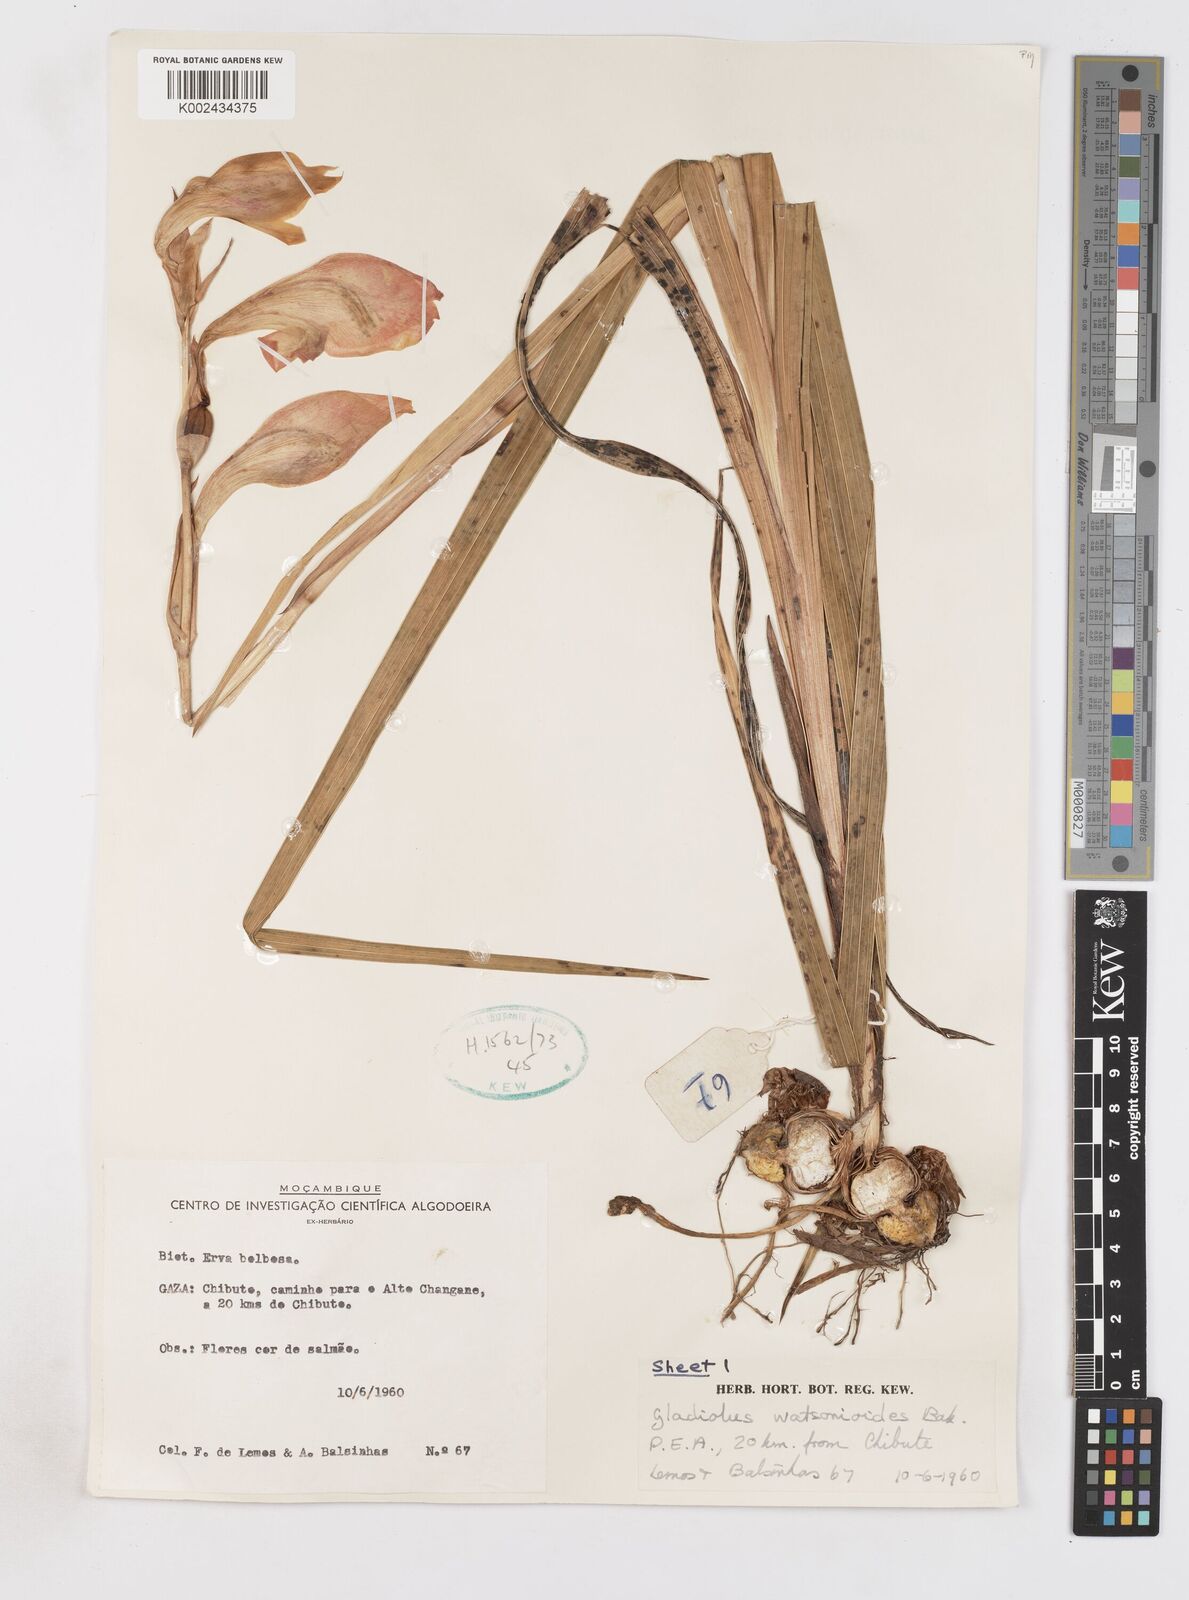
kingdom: Plantae
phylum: Tracheophyta
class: Liliopsida
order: Asparagales
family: Iridaceae
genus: Gladiolus
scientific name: Gladiolus dalenii
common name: Cornflag
